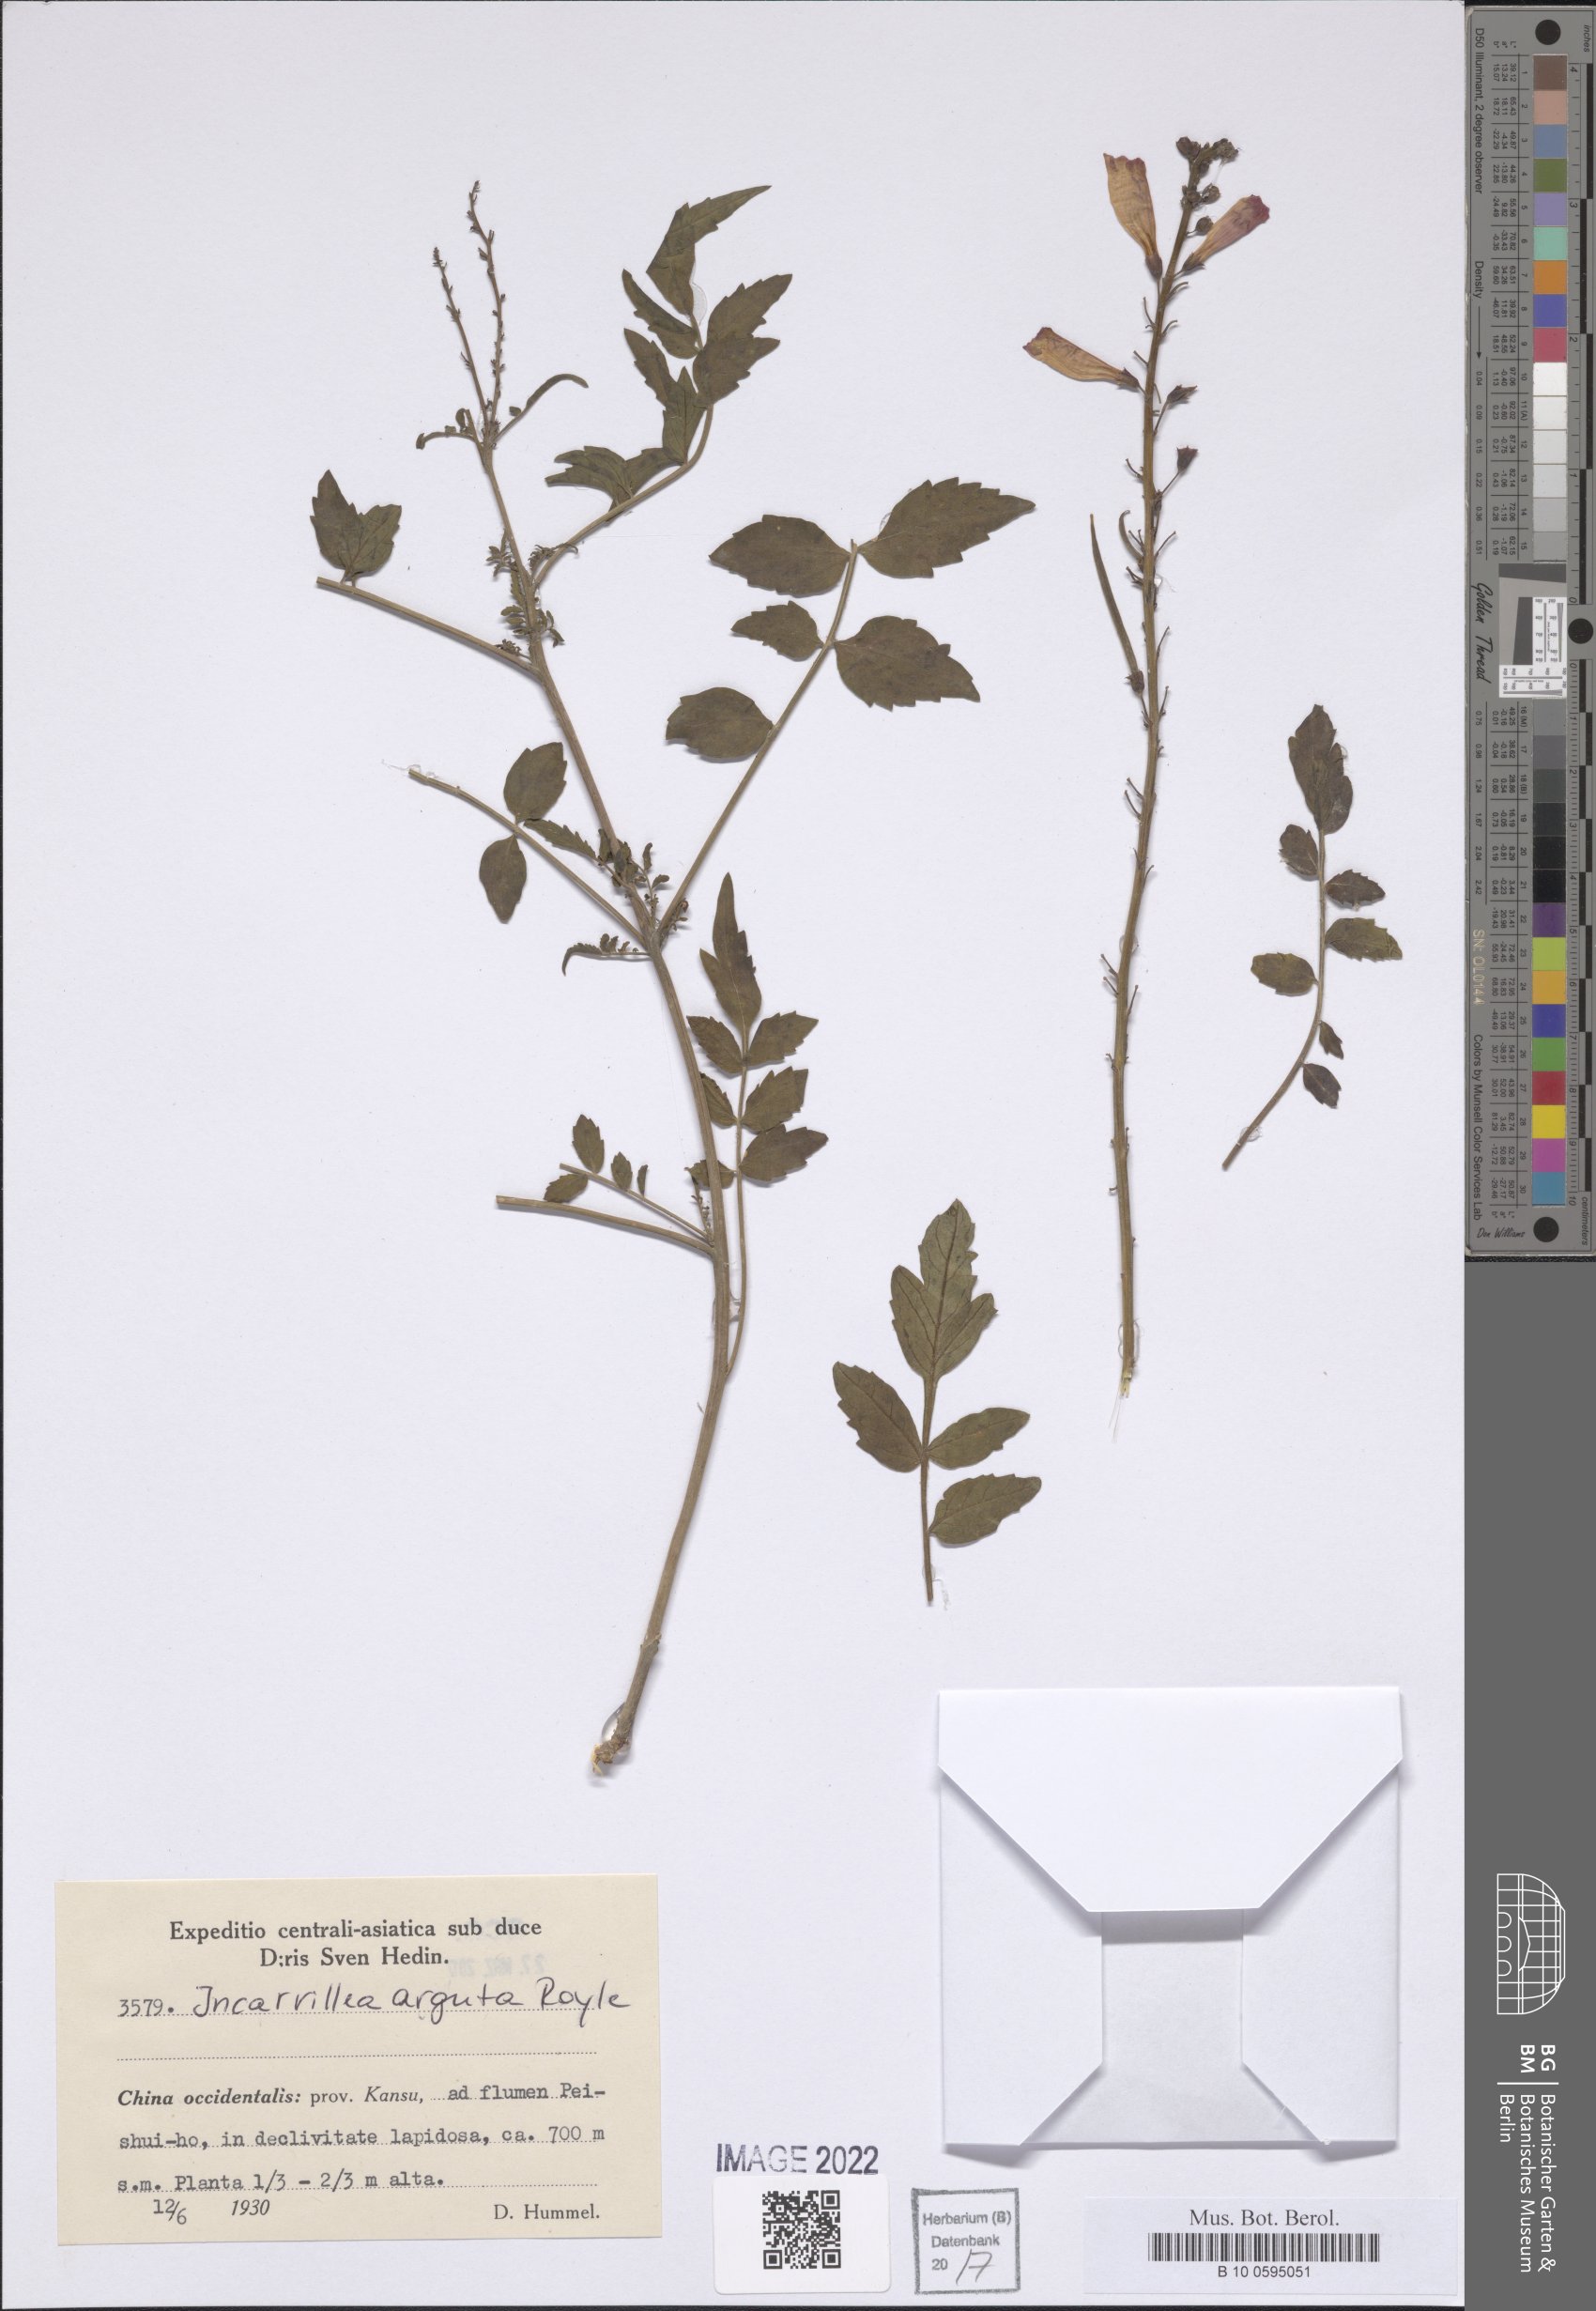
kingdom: Plantae
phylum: Tracheophyta
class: Magnoliopsida
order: Lamiales
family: Bignoniaceae
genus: Incarvillea
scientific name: Incarvillea diffusa
